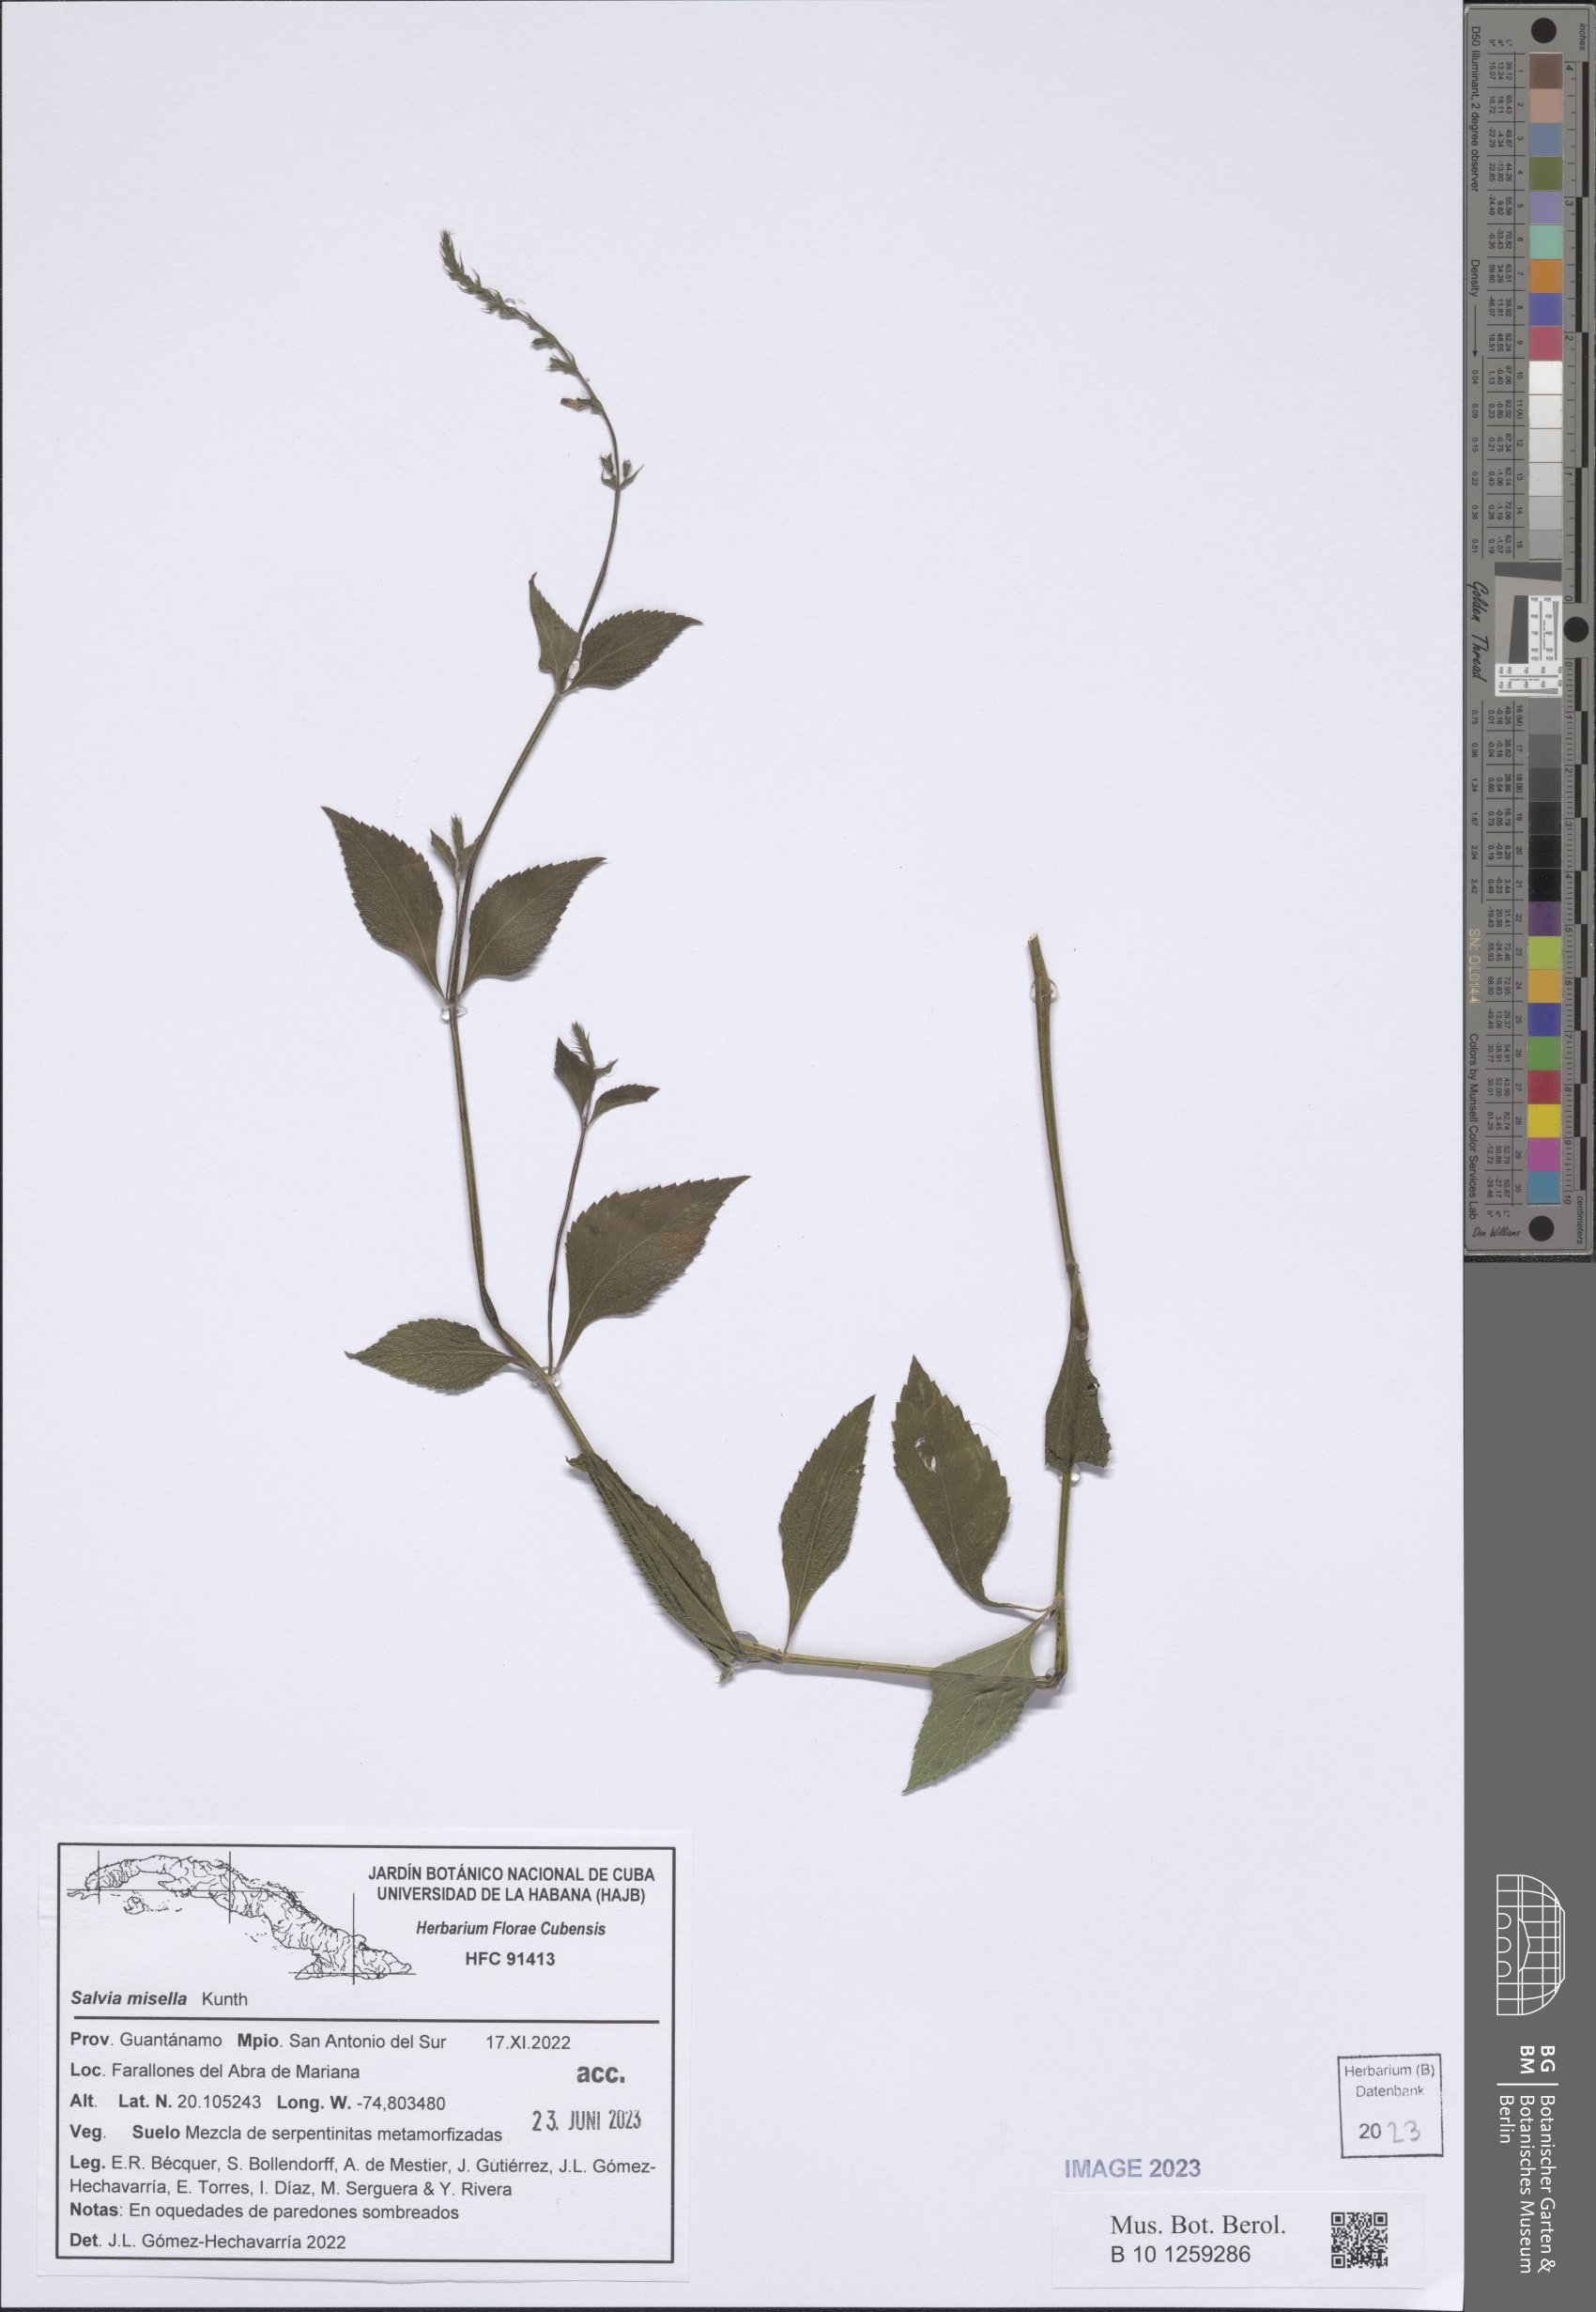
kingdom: Plantae
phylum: Tracheophyta
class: Magnoliopsida
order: Lamiales
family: Lamiaceae
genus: Salvia
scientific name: Salvia misella
